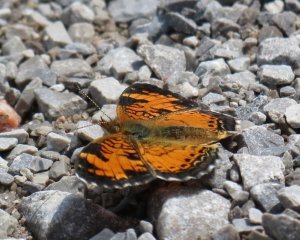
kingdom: Animalia
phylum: Arthropoda
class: Insecta
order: Lepidoptera
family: Nymphalidae
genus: Phyciodes
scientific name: Phyciodes tharos
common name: Northern Crescent
